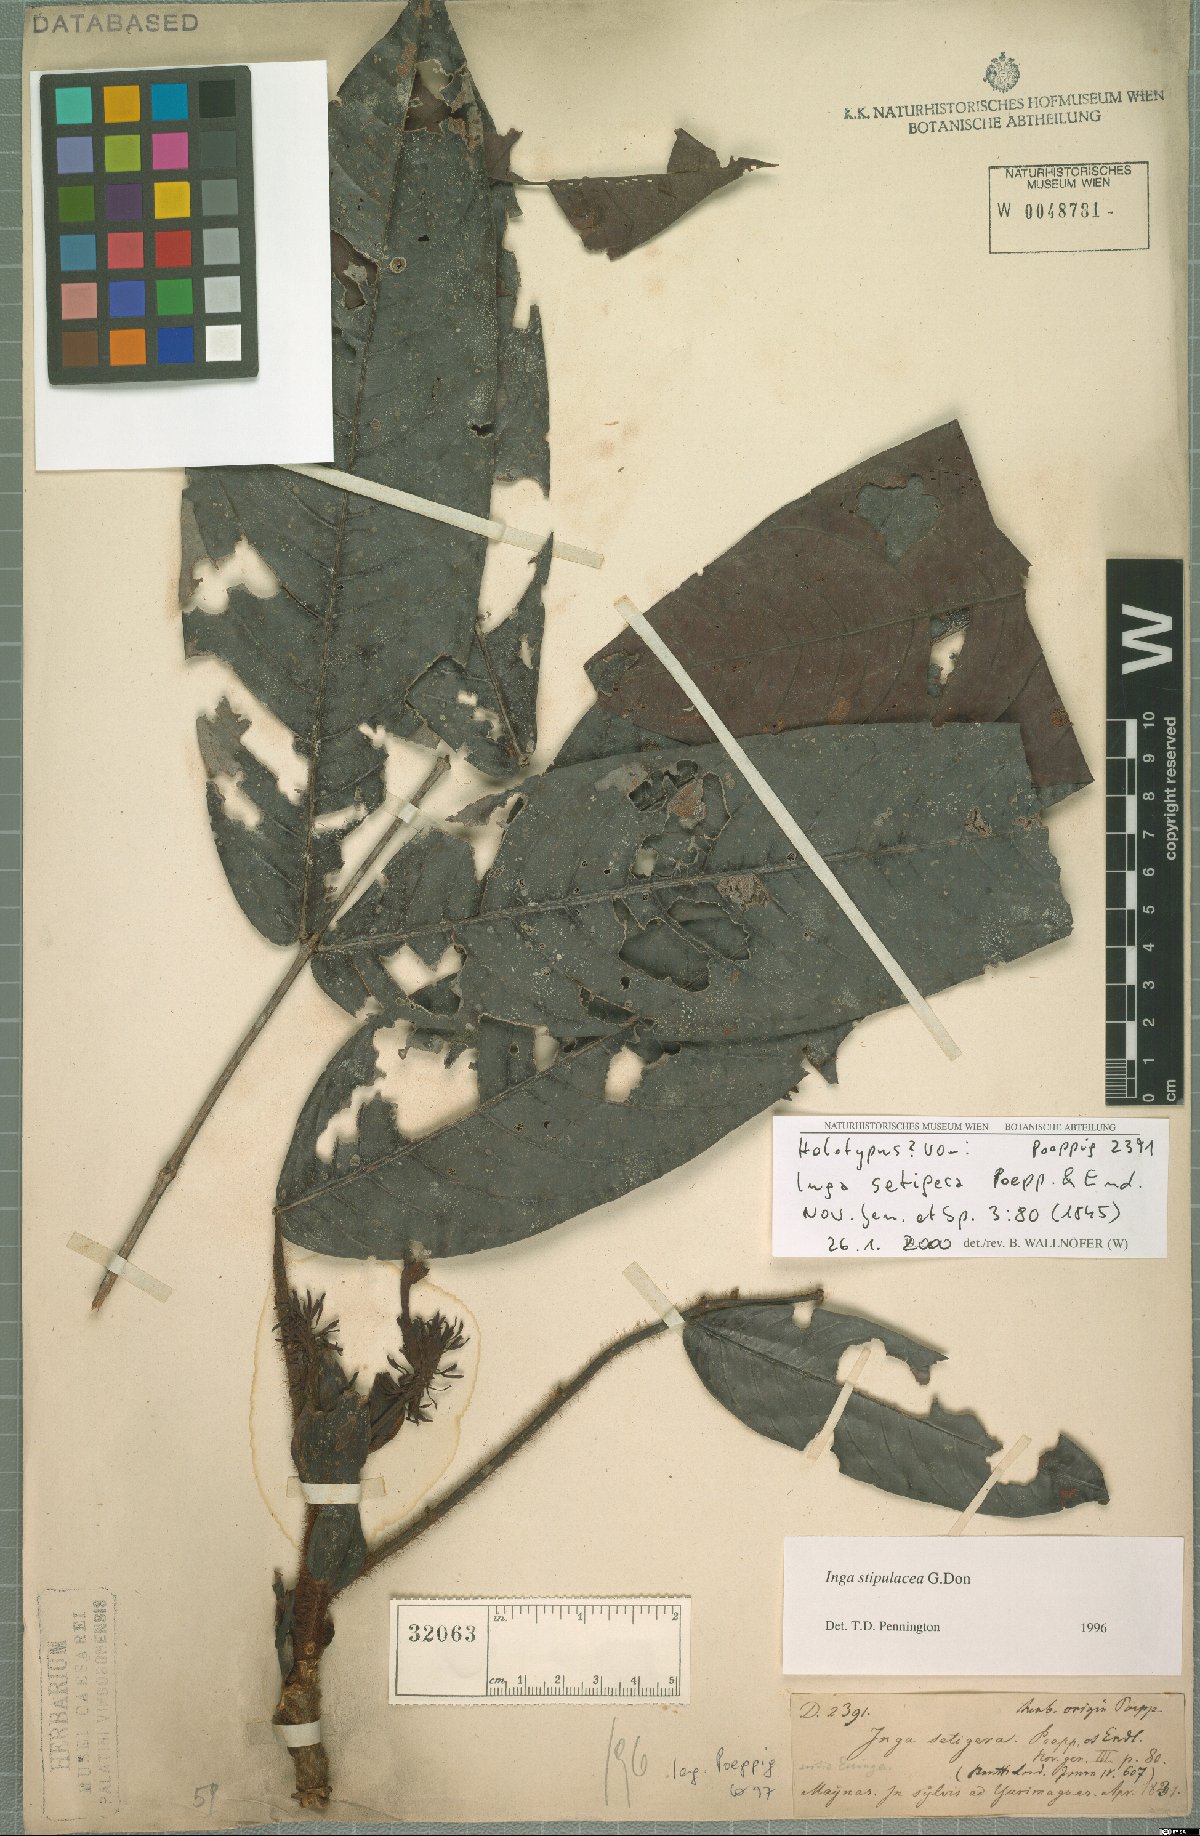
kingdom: Plantae
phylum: Tracheophyta
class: Magnoliopsida
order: Fabales
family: Fabaceae
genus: Inga
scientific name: Inga stipulacea
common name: Stipulate inga
